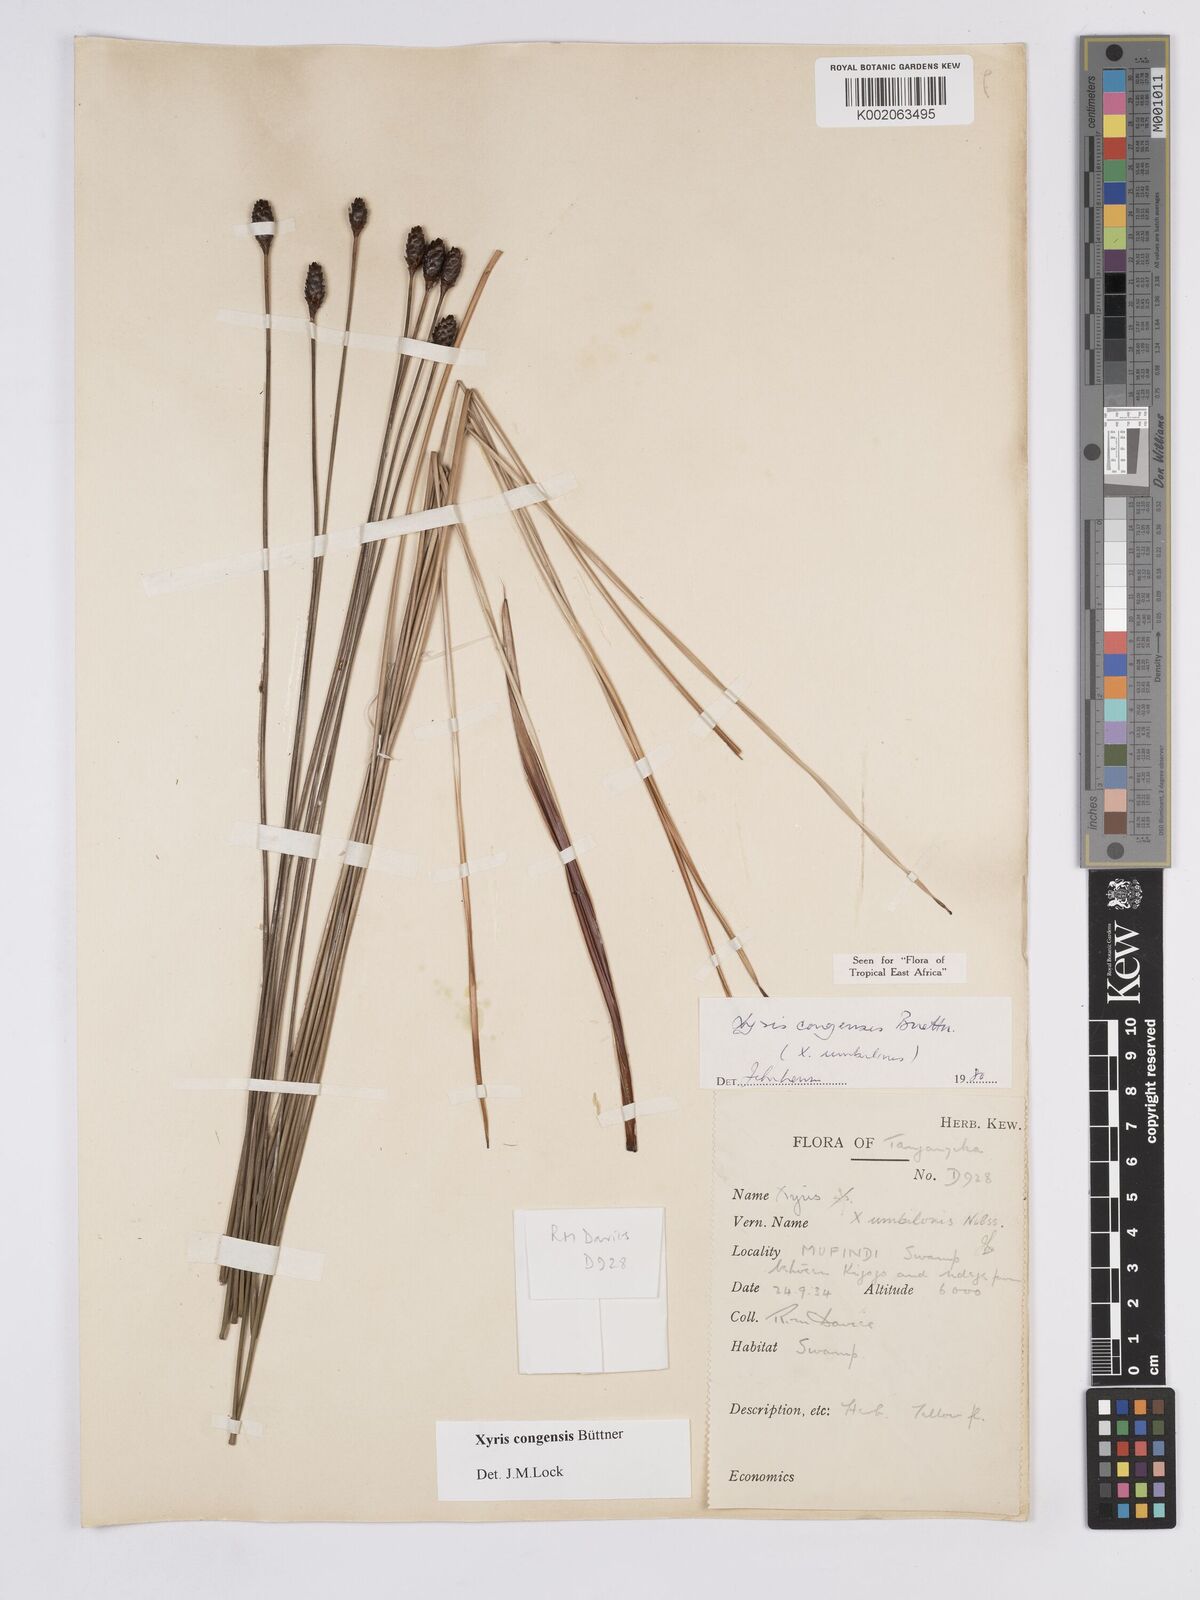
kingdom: Plantae
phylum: Tracheophyta
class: Liliopsida
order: Poales
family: Xyridaceae
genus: Xyris
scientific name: Xyris congensis
